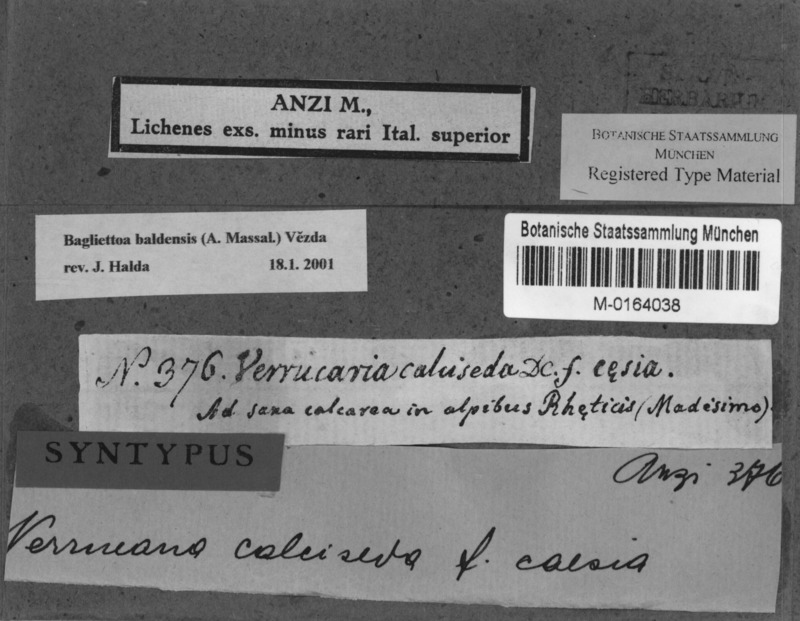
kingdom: Fungi
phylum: Ascomycota
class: Eurotiomycetes
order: Verrucariales
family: Verrucariaceae
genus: Bagliettoa
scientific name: Bagliettoa baldensis
